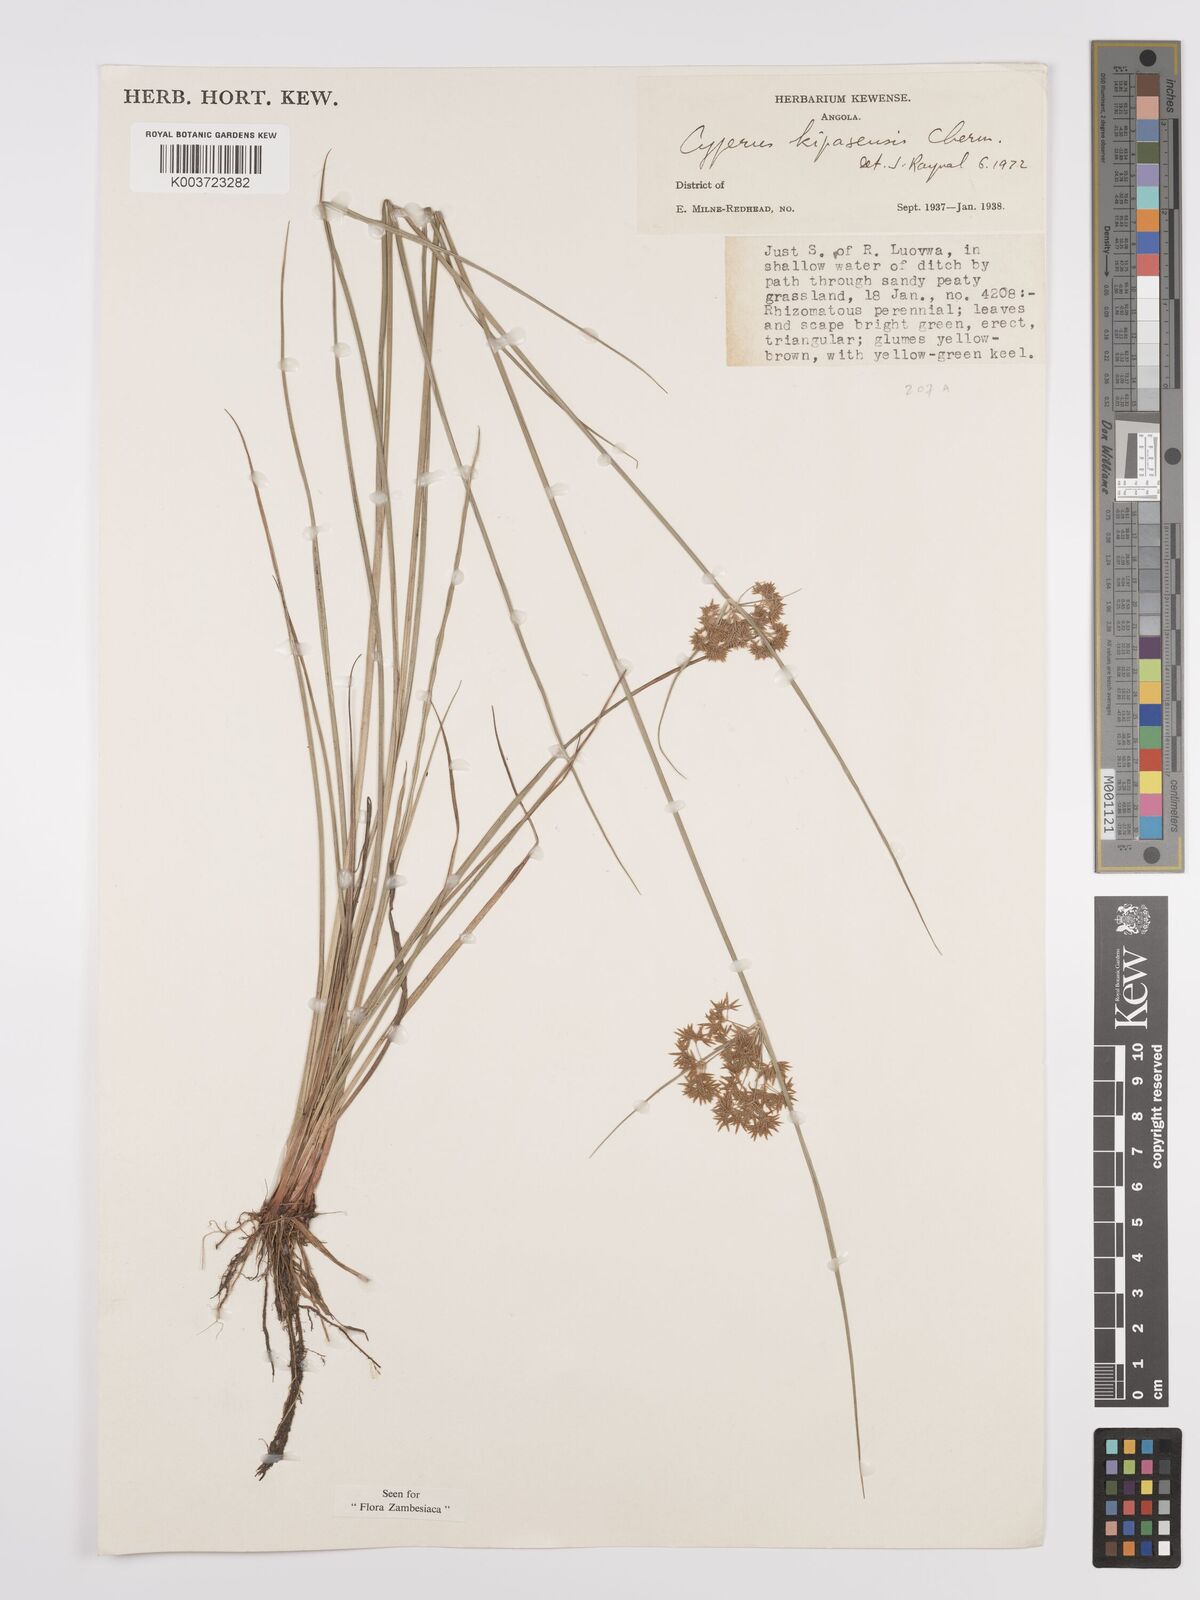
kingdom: Plantae
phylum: Tracheophyta
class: Liliopsida
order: Poales
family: Cyperaceae
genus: Cyperus
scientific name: Cyperus kipasensis
